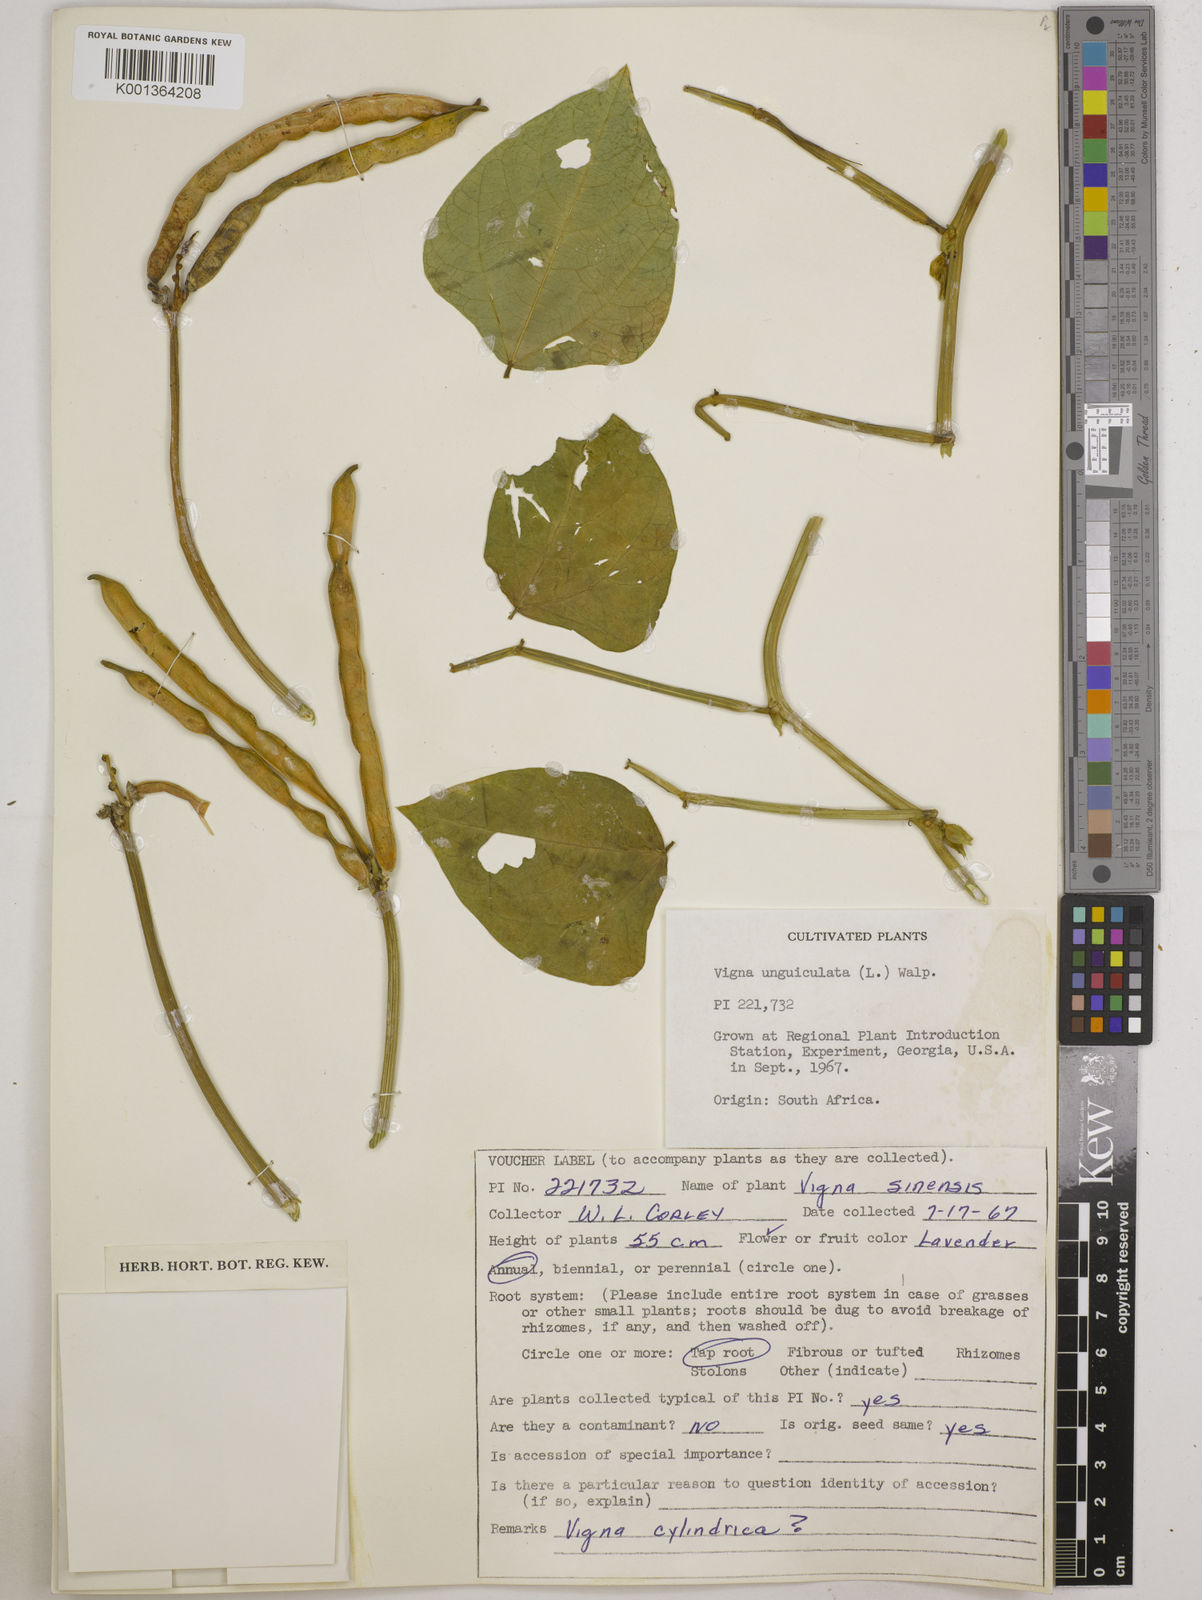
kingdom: Plantae
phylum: Tracheophyta
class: Magnoliopsida
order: Fabales
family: Fabaceae
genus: Vigna
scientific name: Vigna
